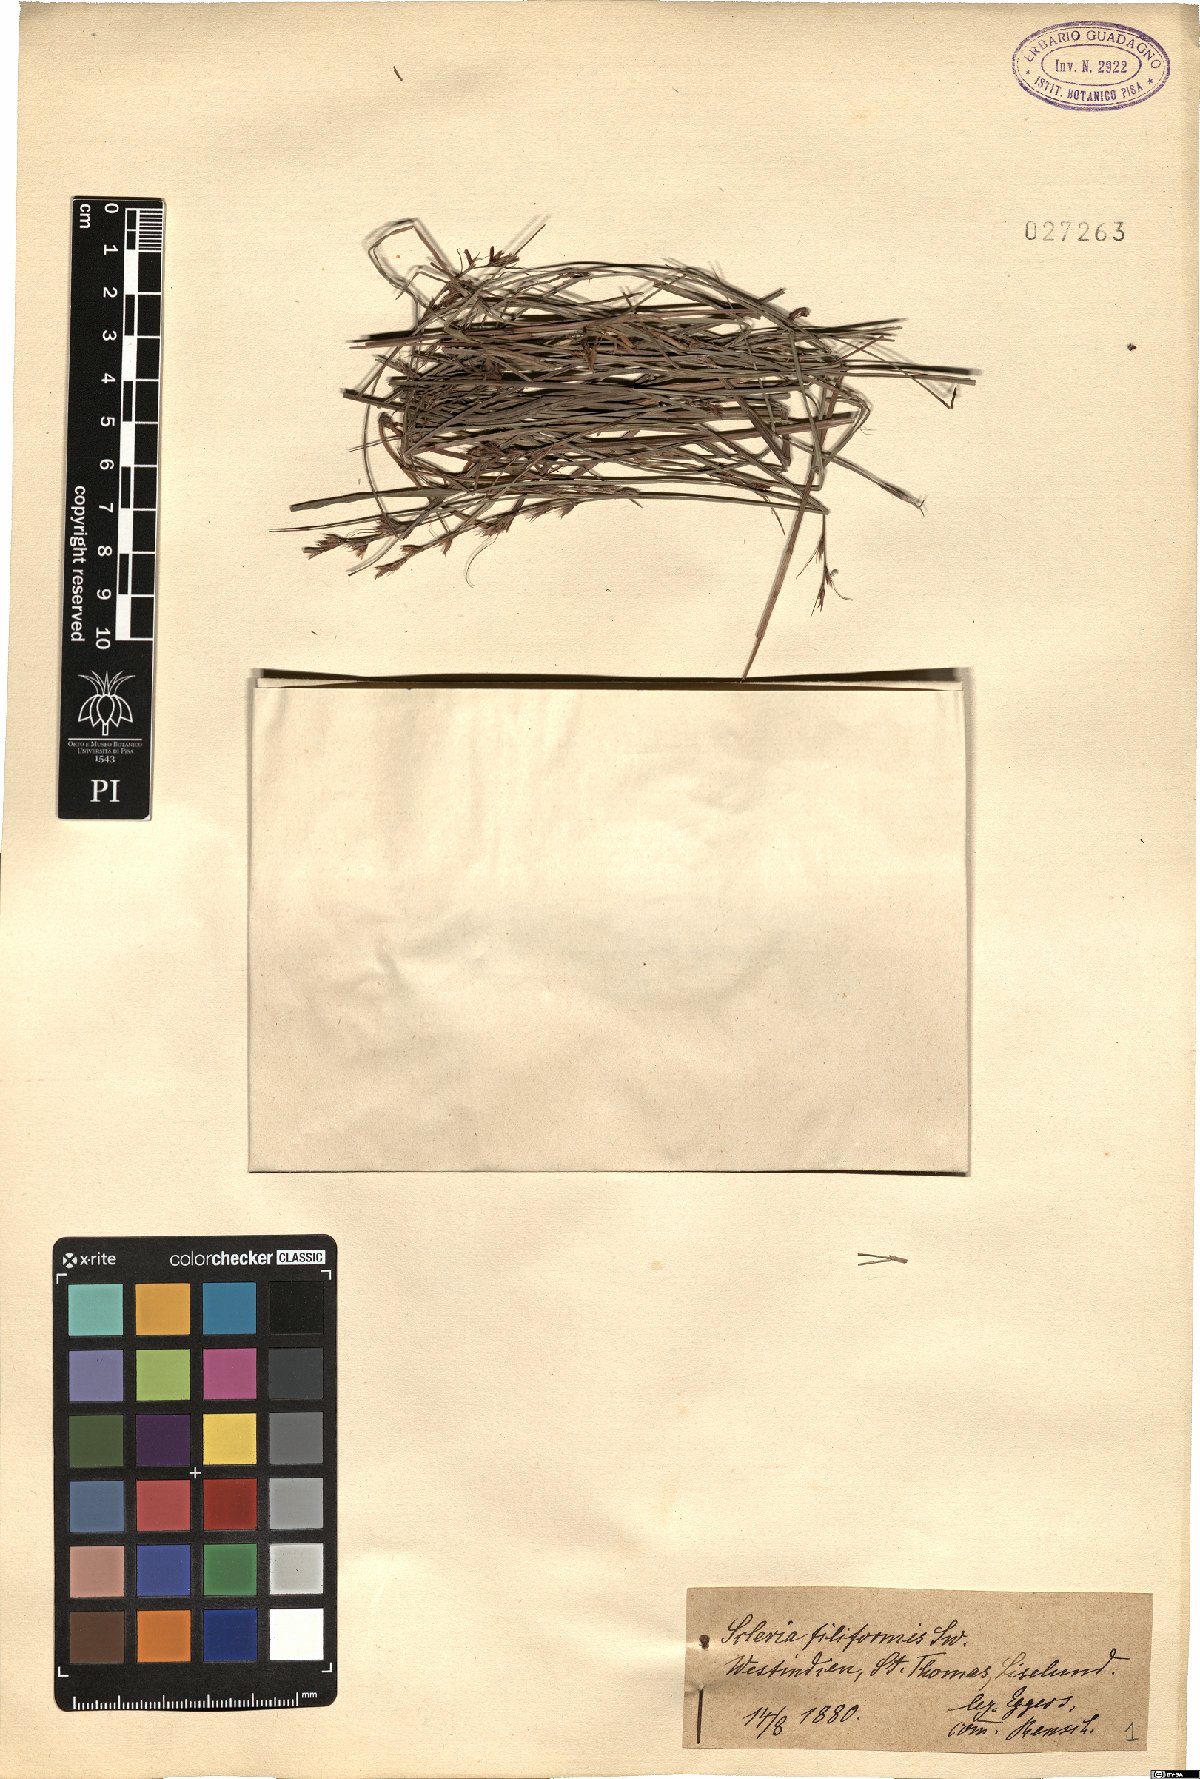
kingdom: Plantae
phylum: Tracheophyta
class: Liliopsida
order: Poales
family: Cyperaceae
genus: Scleria
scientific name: Scleria lithosperma
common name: Florida keys nut-rush
